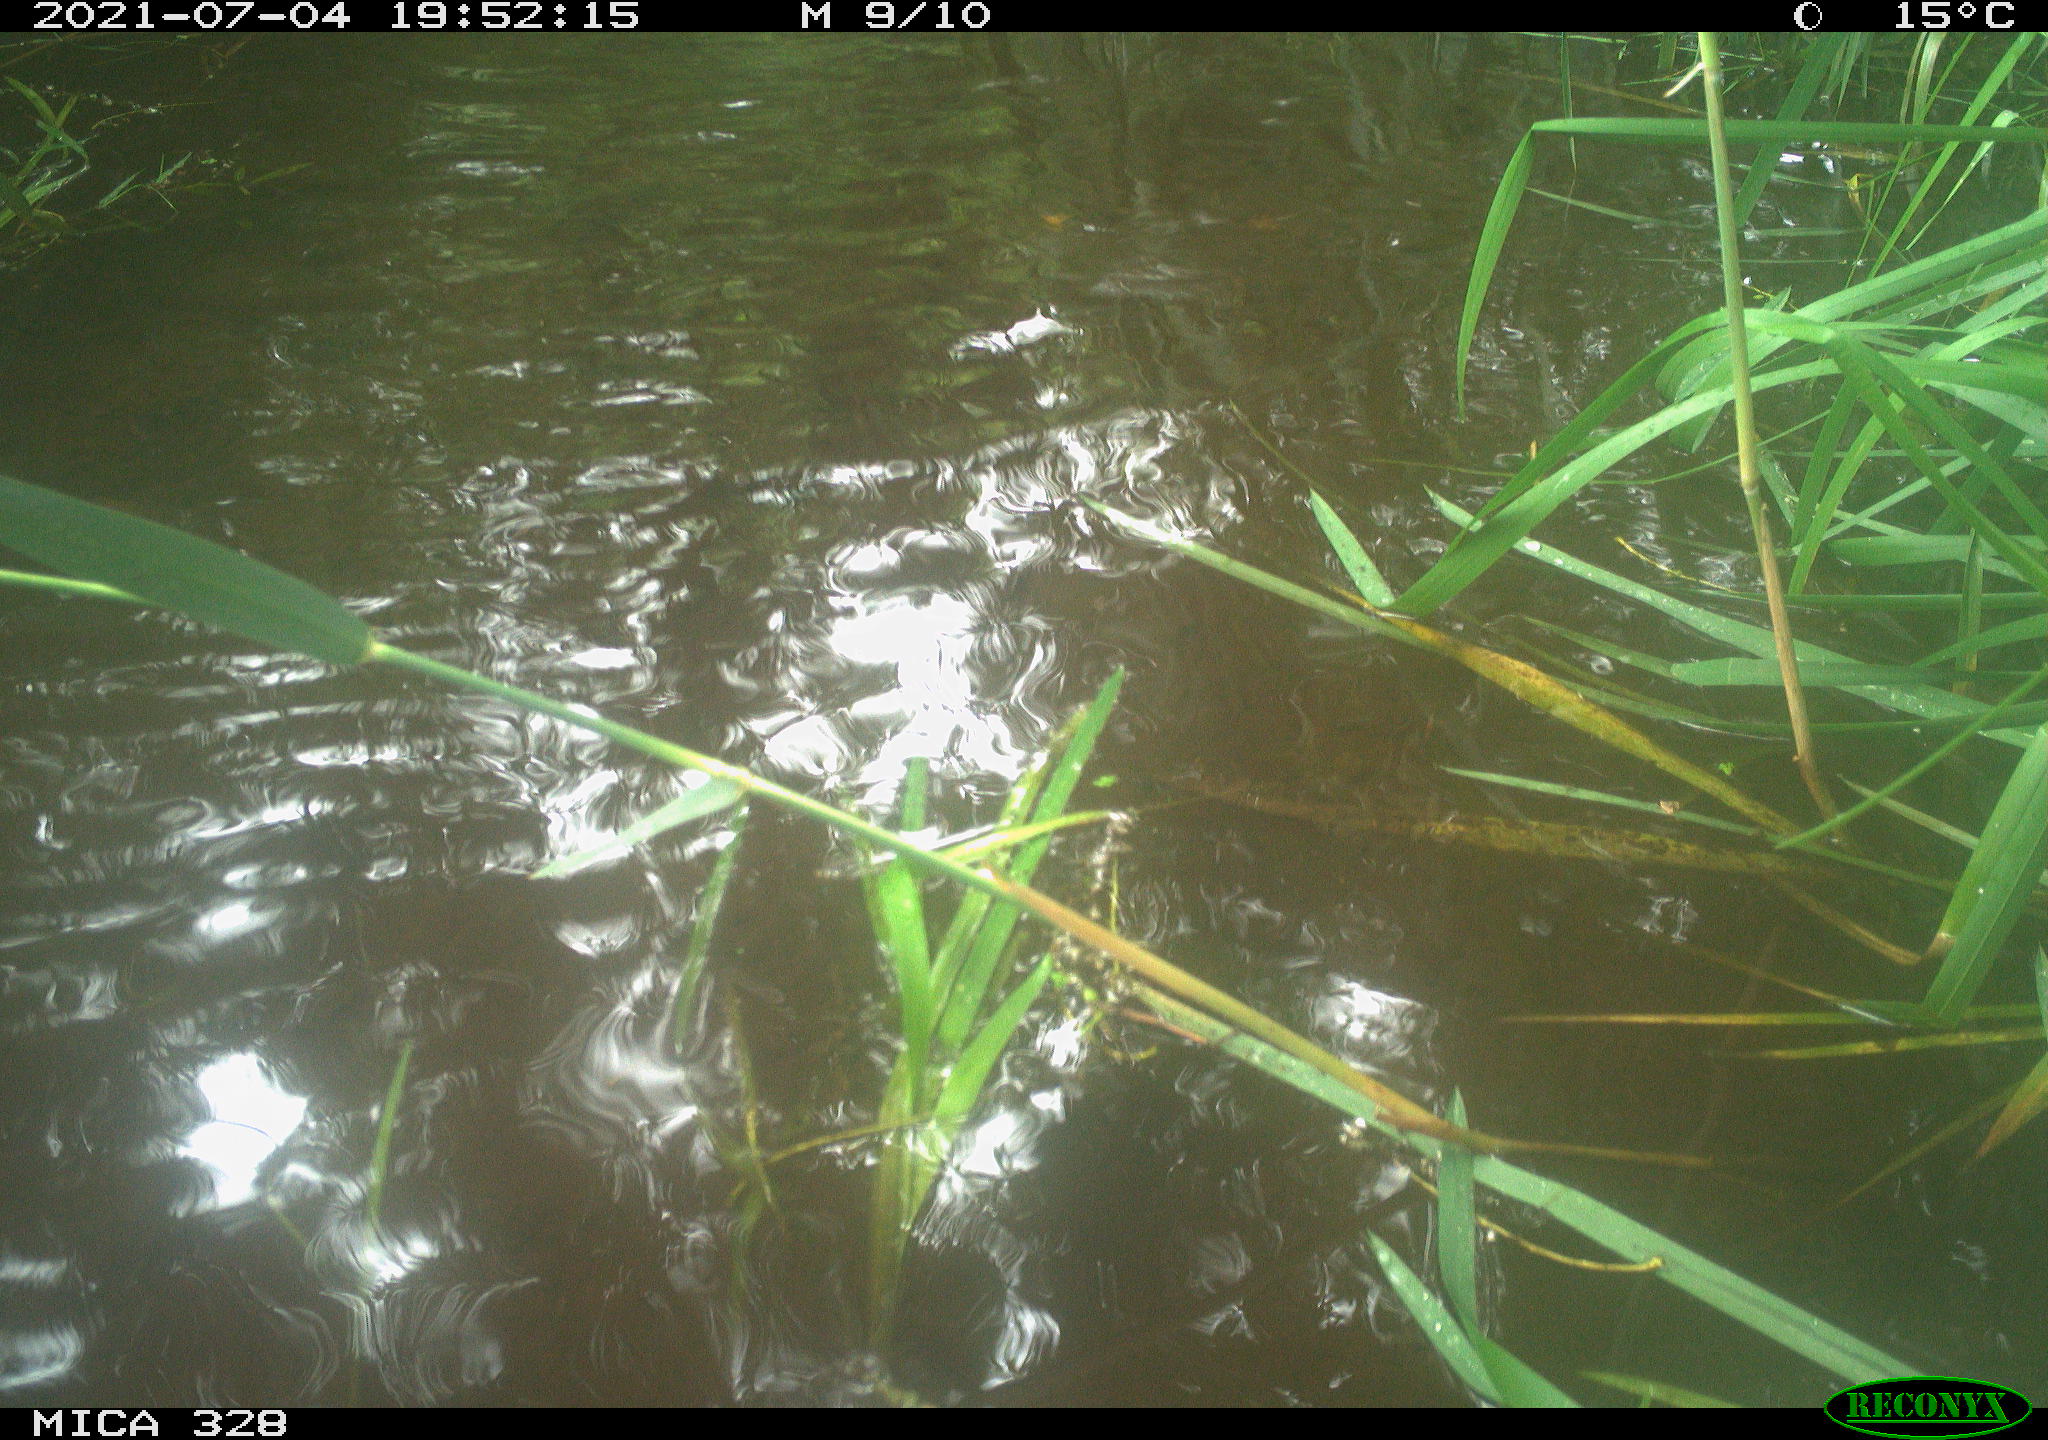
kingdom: Animalia
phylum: Chordata
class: Mammalia
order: Rodentia
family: Cricetidae
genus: Ondatra
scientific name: Ondatra zibethicus
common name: Muskrat
